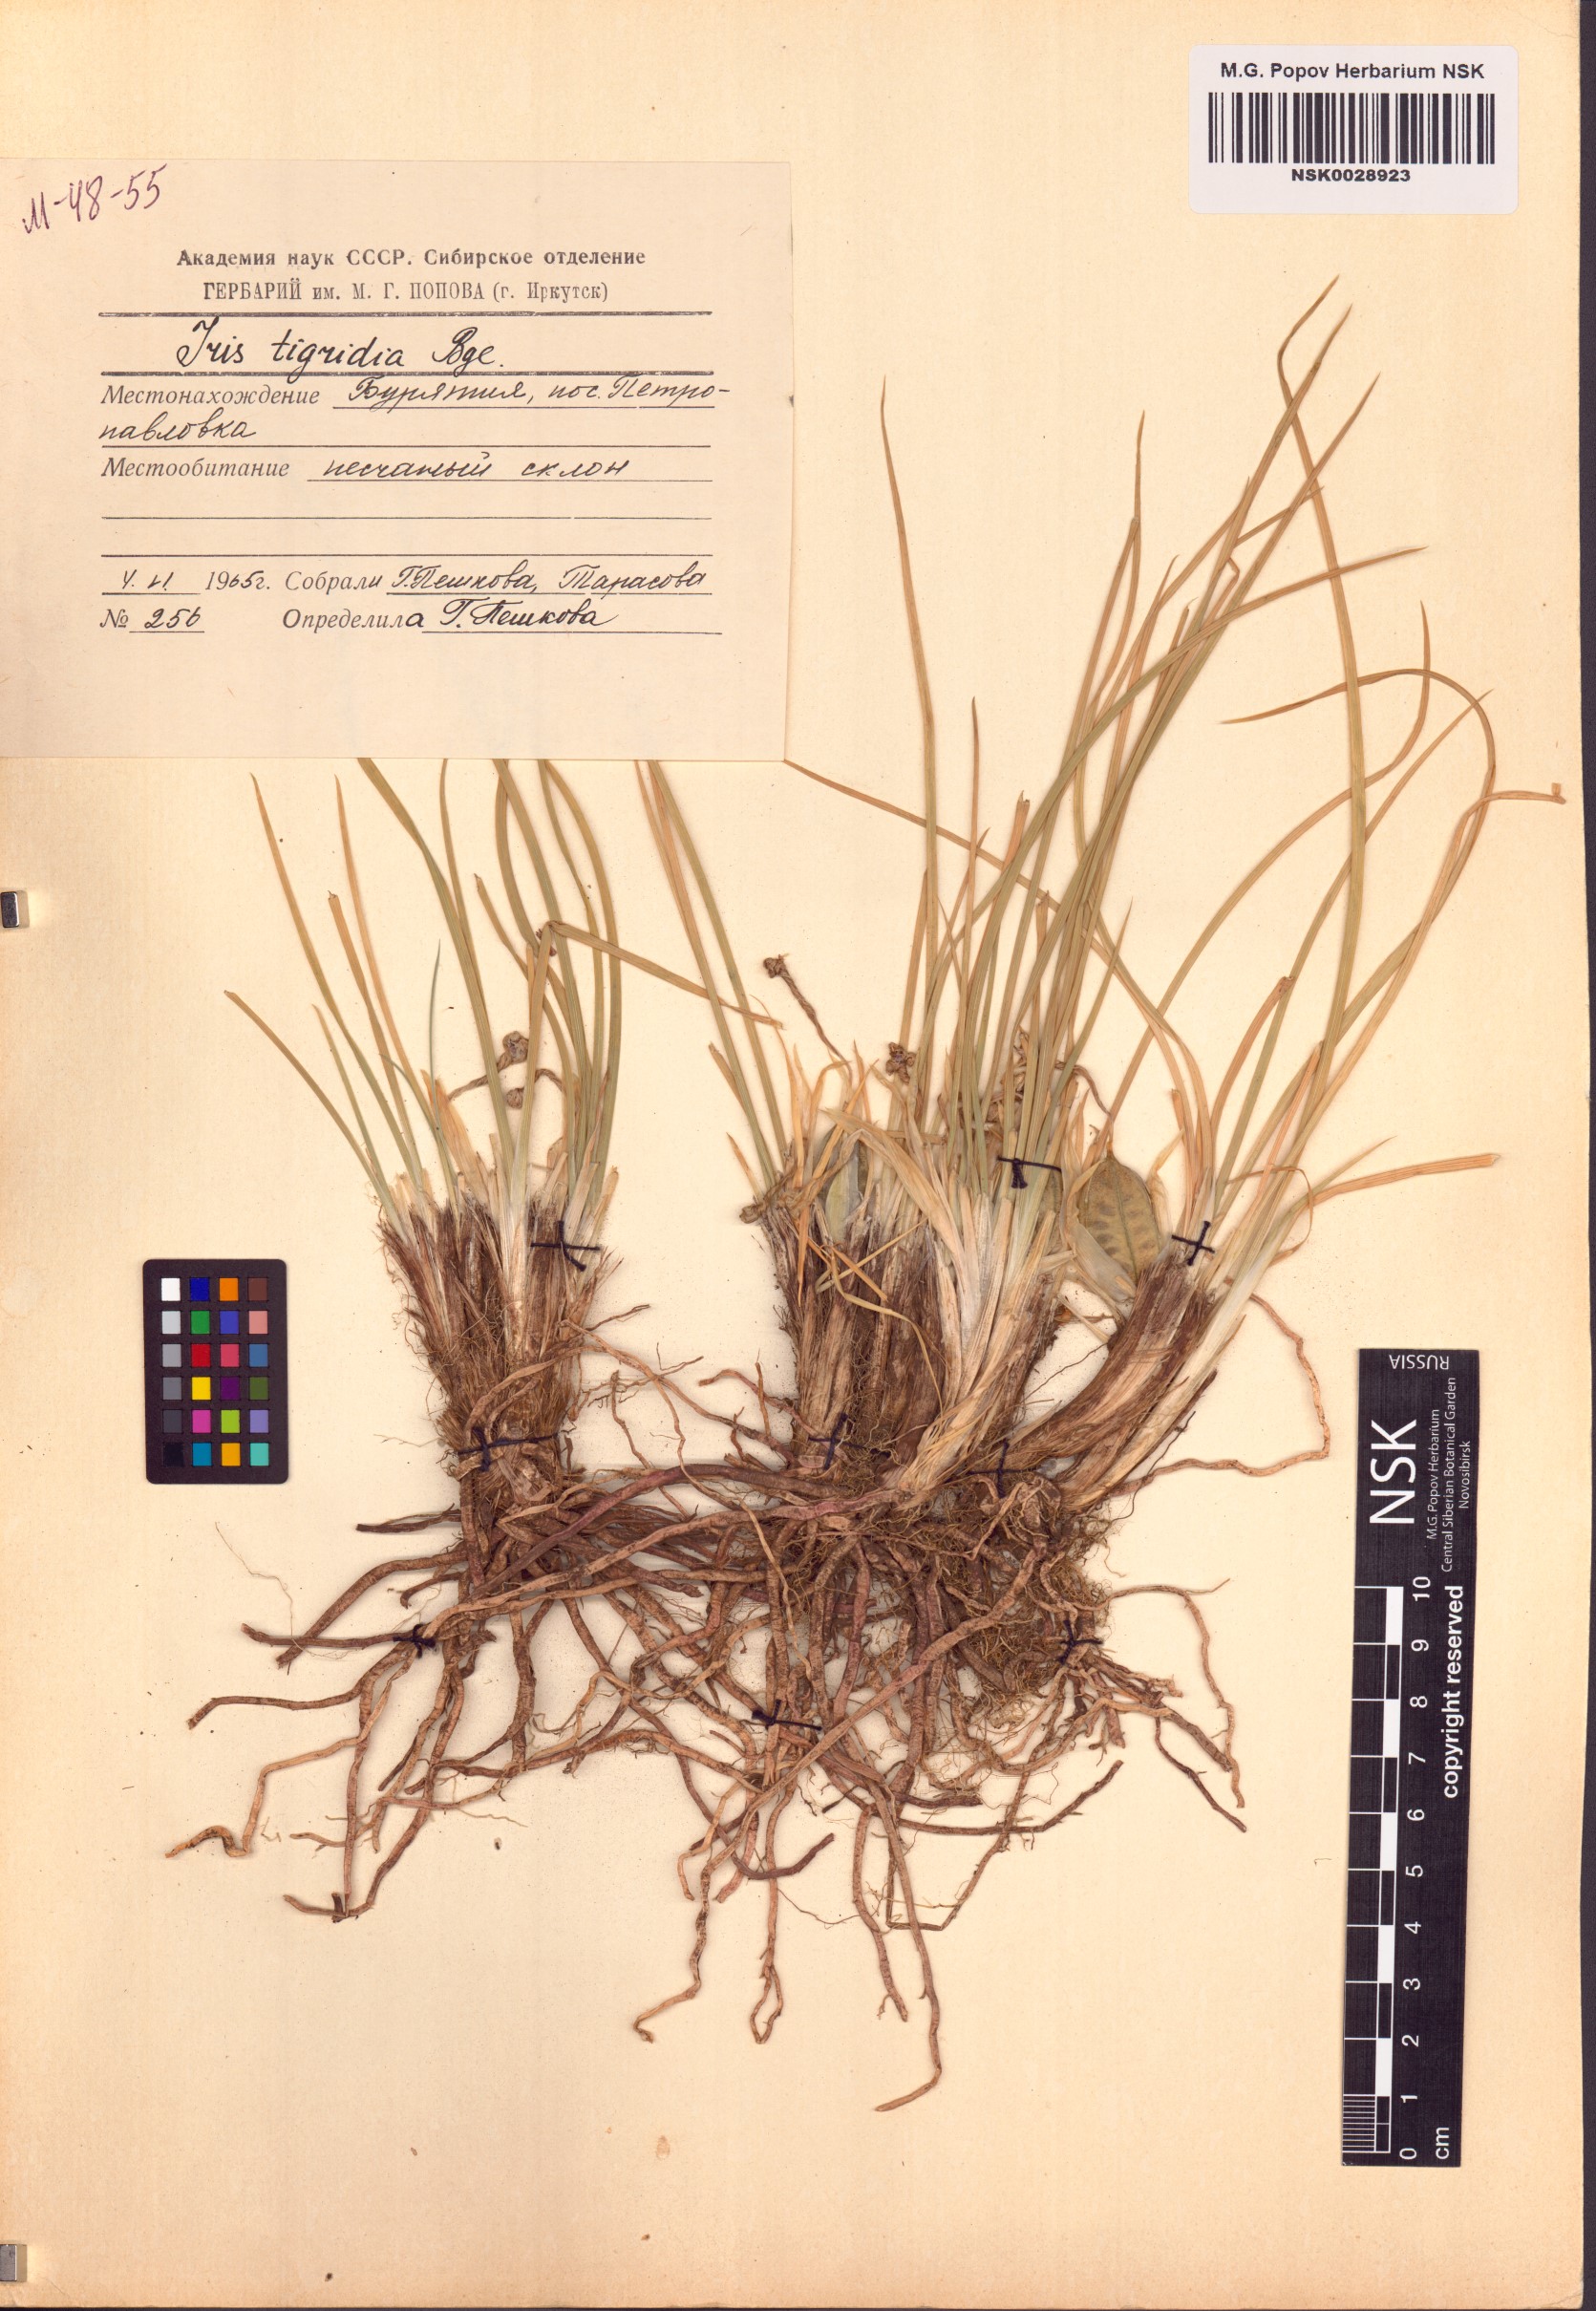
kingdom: Plantae
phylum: Tracheophyta
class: Liliopsida
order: Asparagales
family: Iridaceae
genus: Iris
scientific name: Iris tigridia
